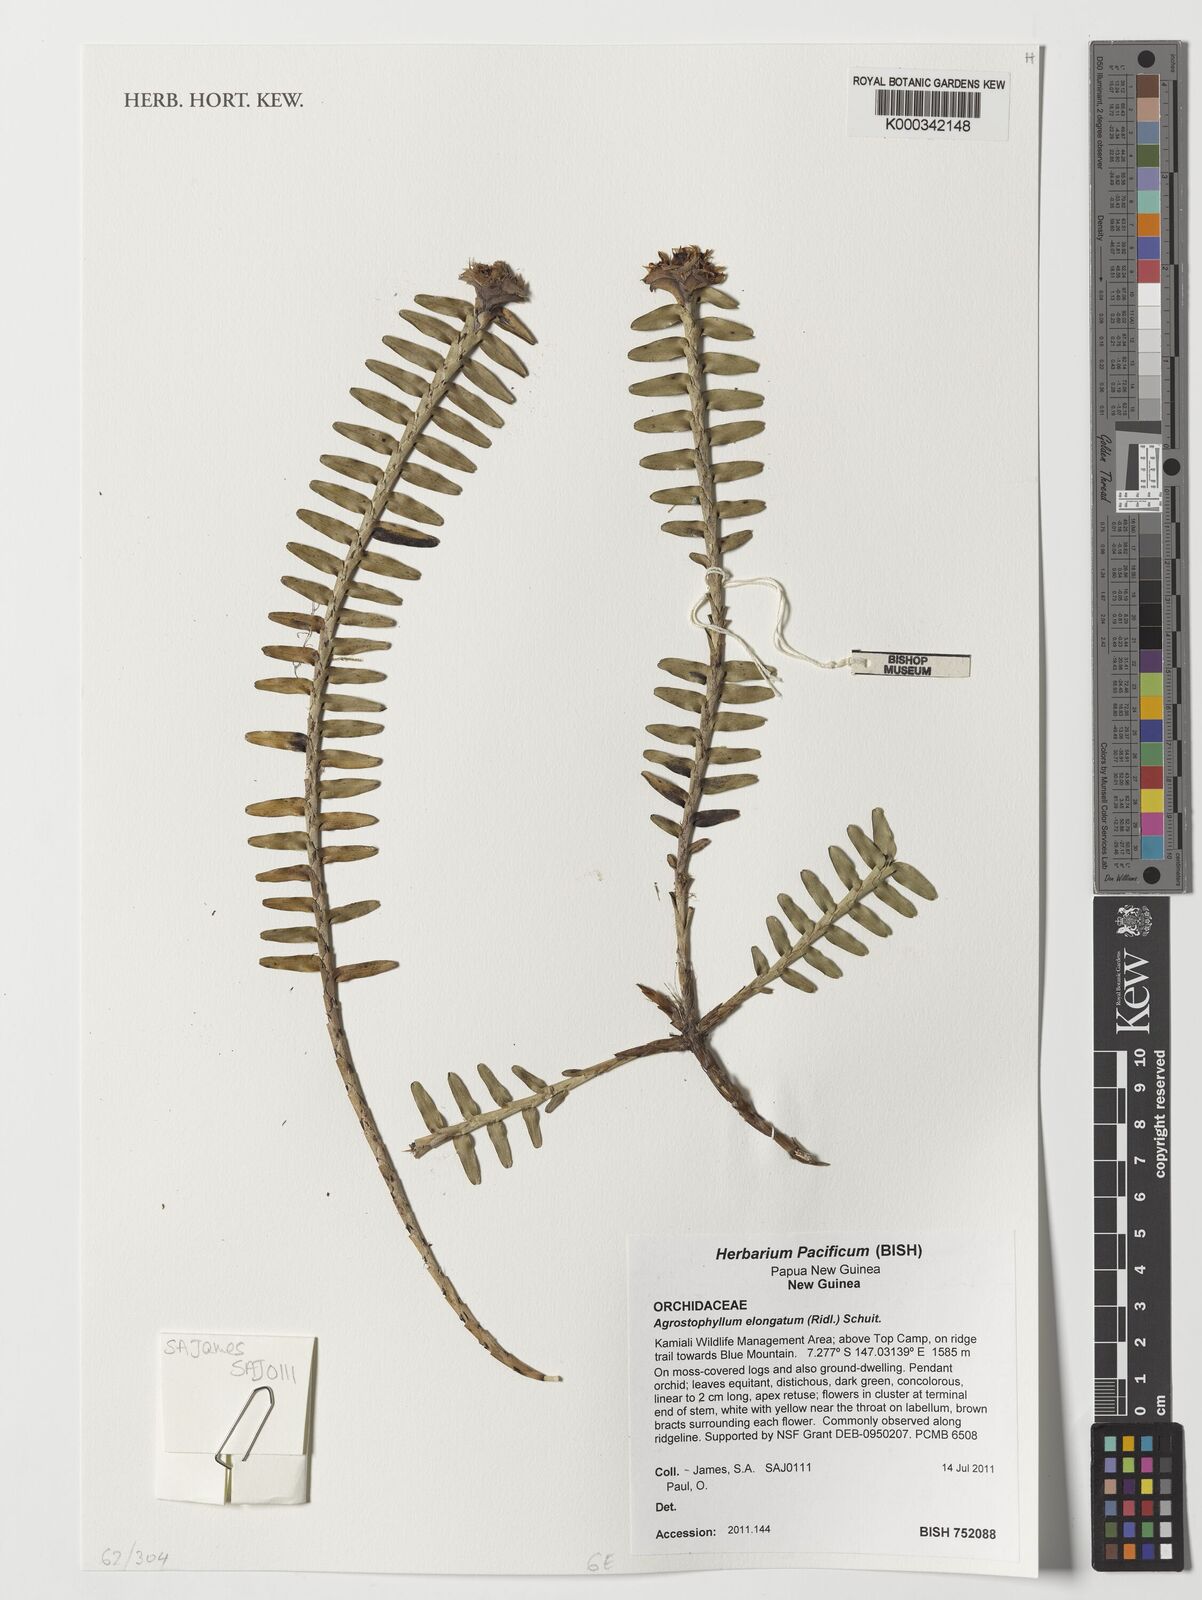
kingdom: Plantae
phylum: Tracheophyta
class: Liliopsida
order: Asparagales
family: Orchidaceae
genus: Agrostophyllum
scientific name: Agrostophyllum elongatum
